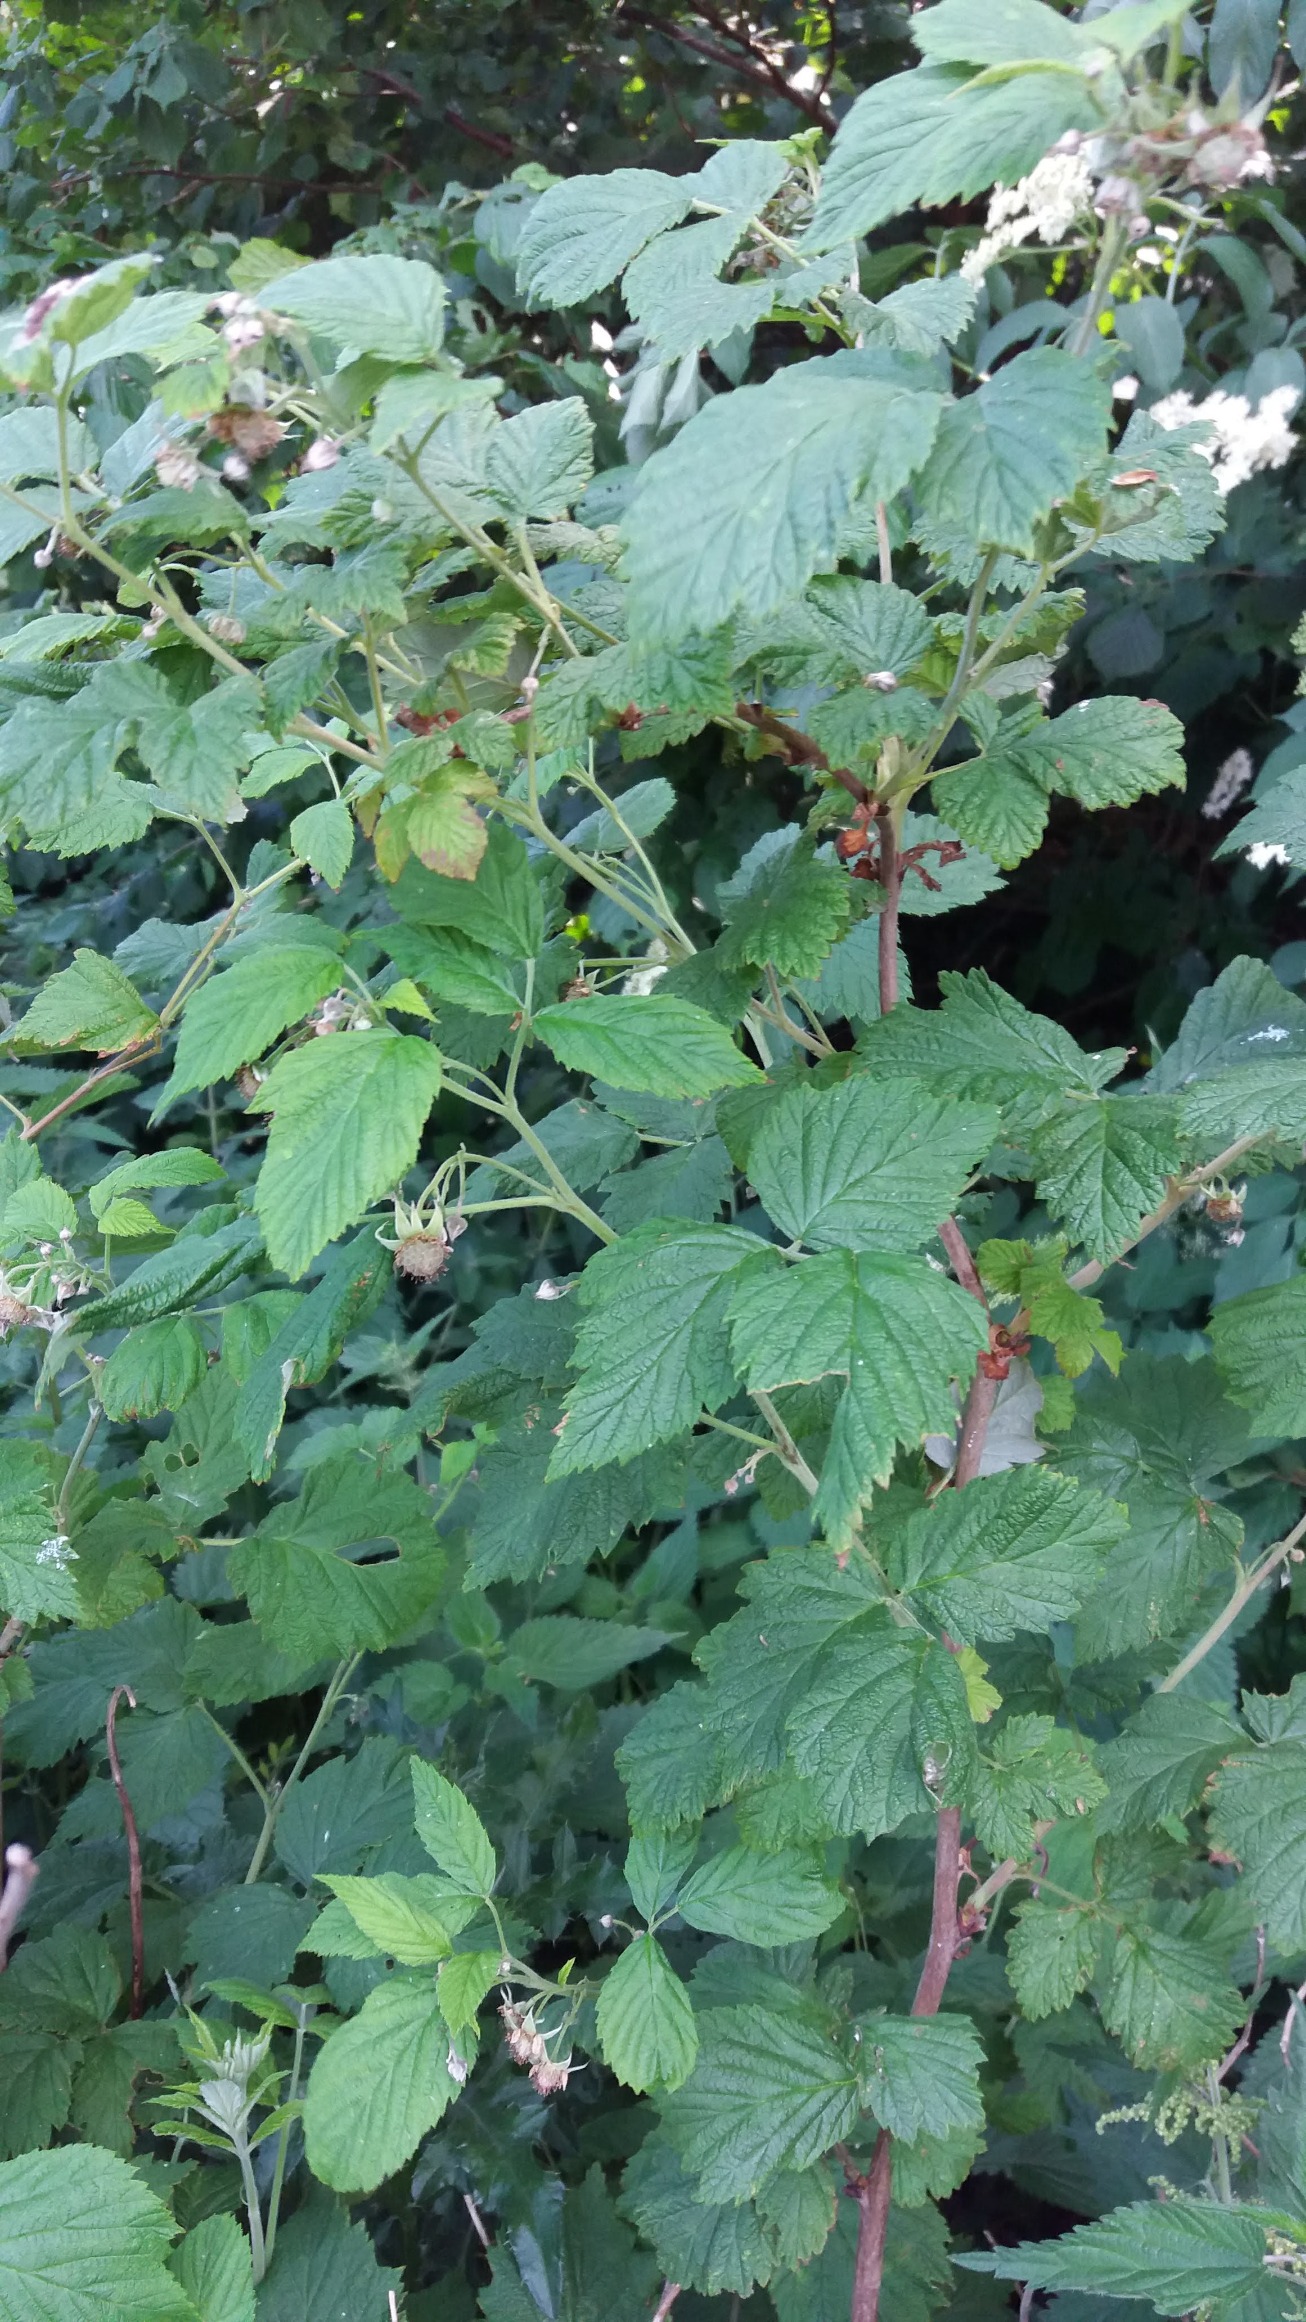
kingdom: Plantae
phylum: Tracheophyta
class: Magnoliopsida
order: Rosales
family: Rosaceae
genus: Rubus
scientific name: Rubus idaeus
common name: Hindbær
